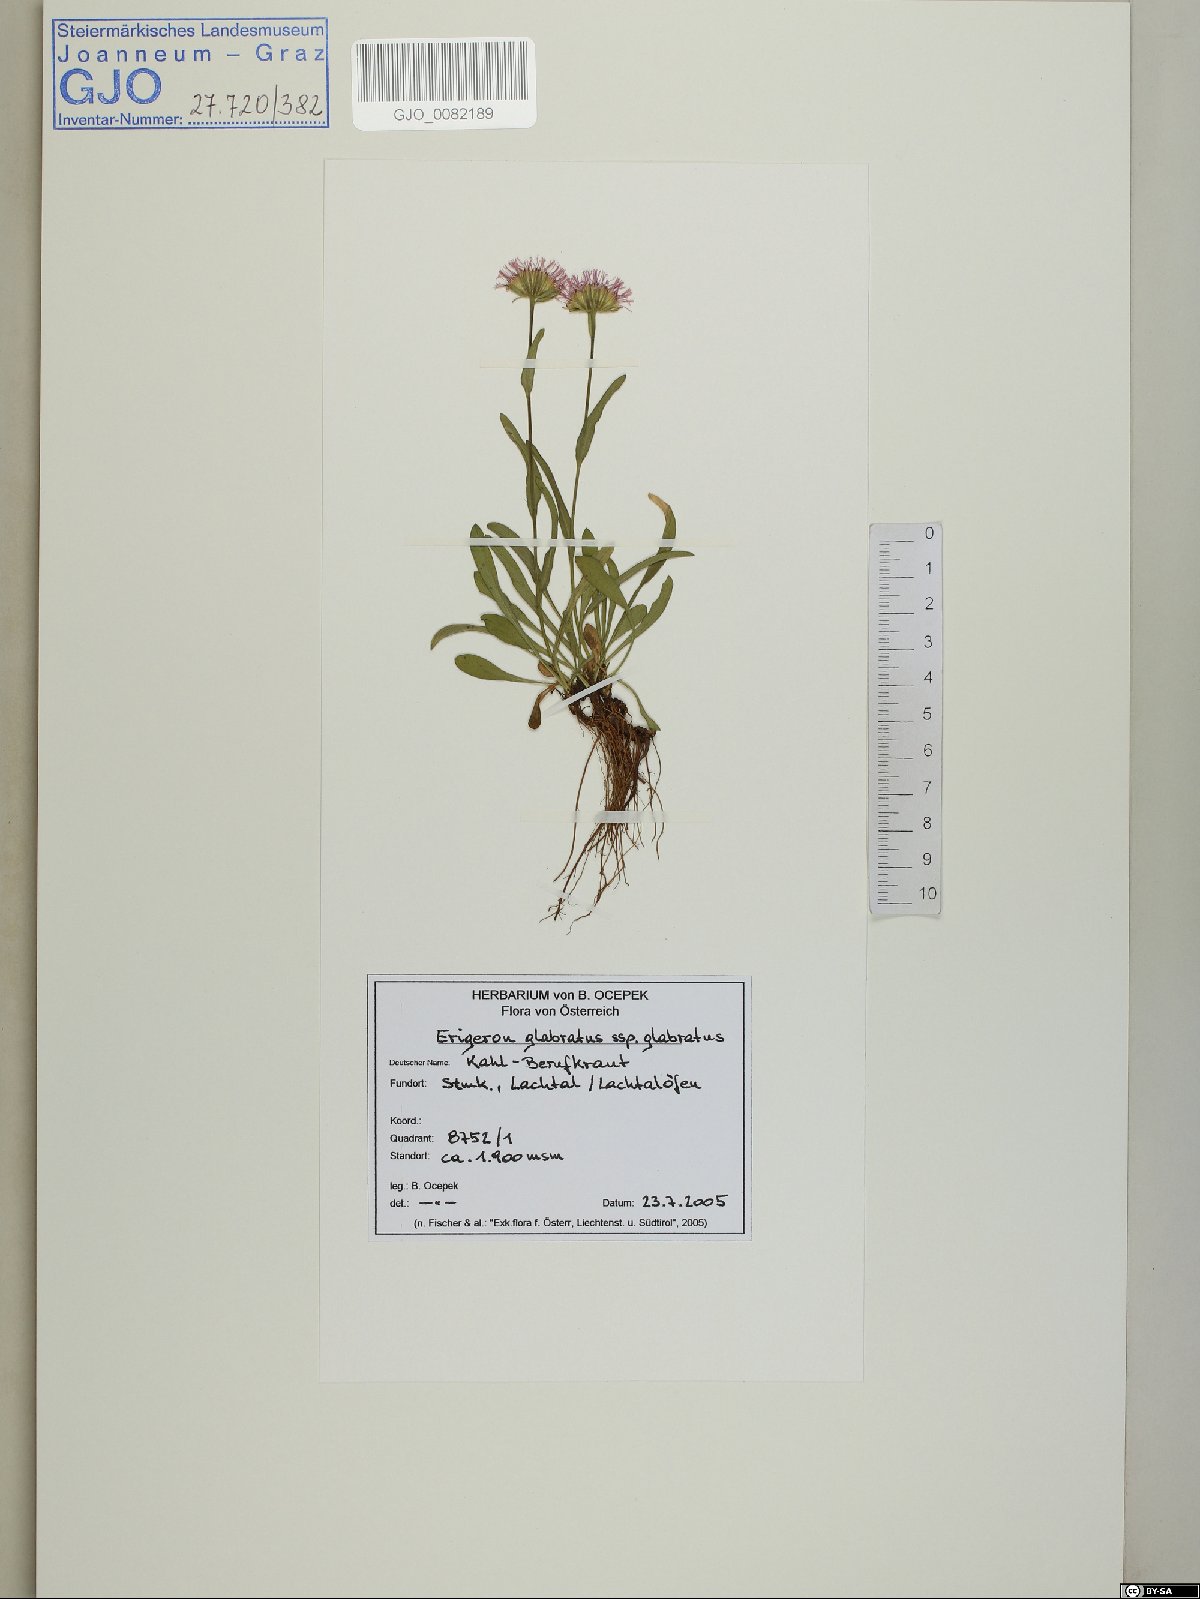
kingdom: Plantae
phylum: Tracheophyta
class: Magnoliopsida
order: Asterales
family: Asteraceae
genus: Erigeron
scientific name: Erigeron glabratus
